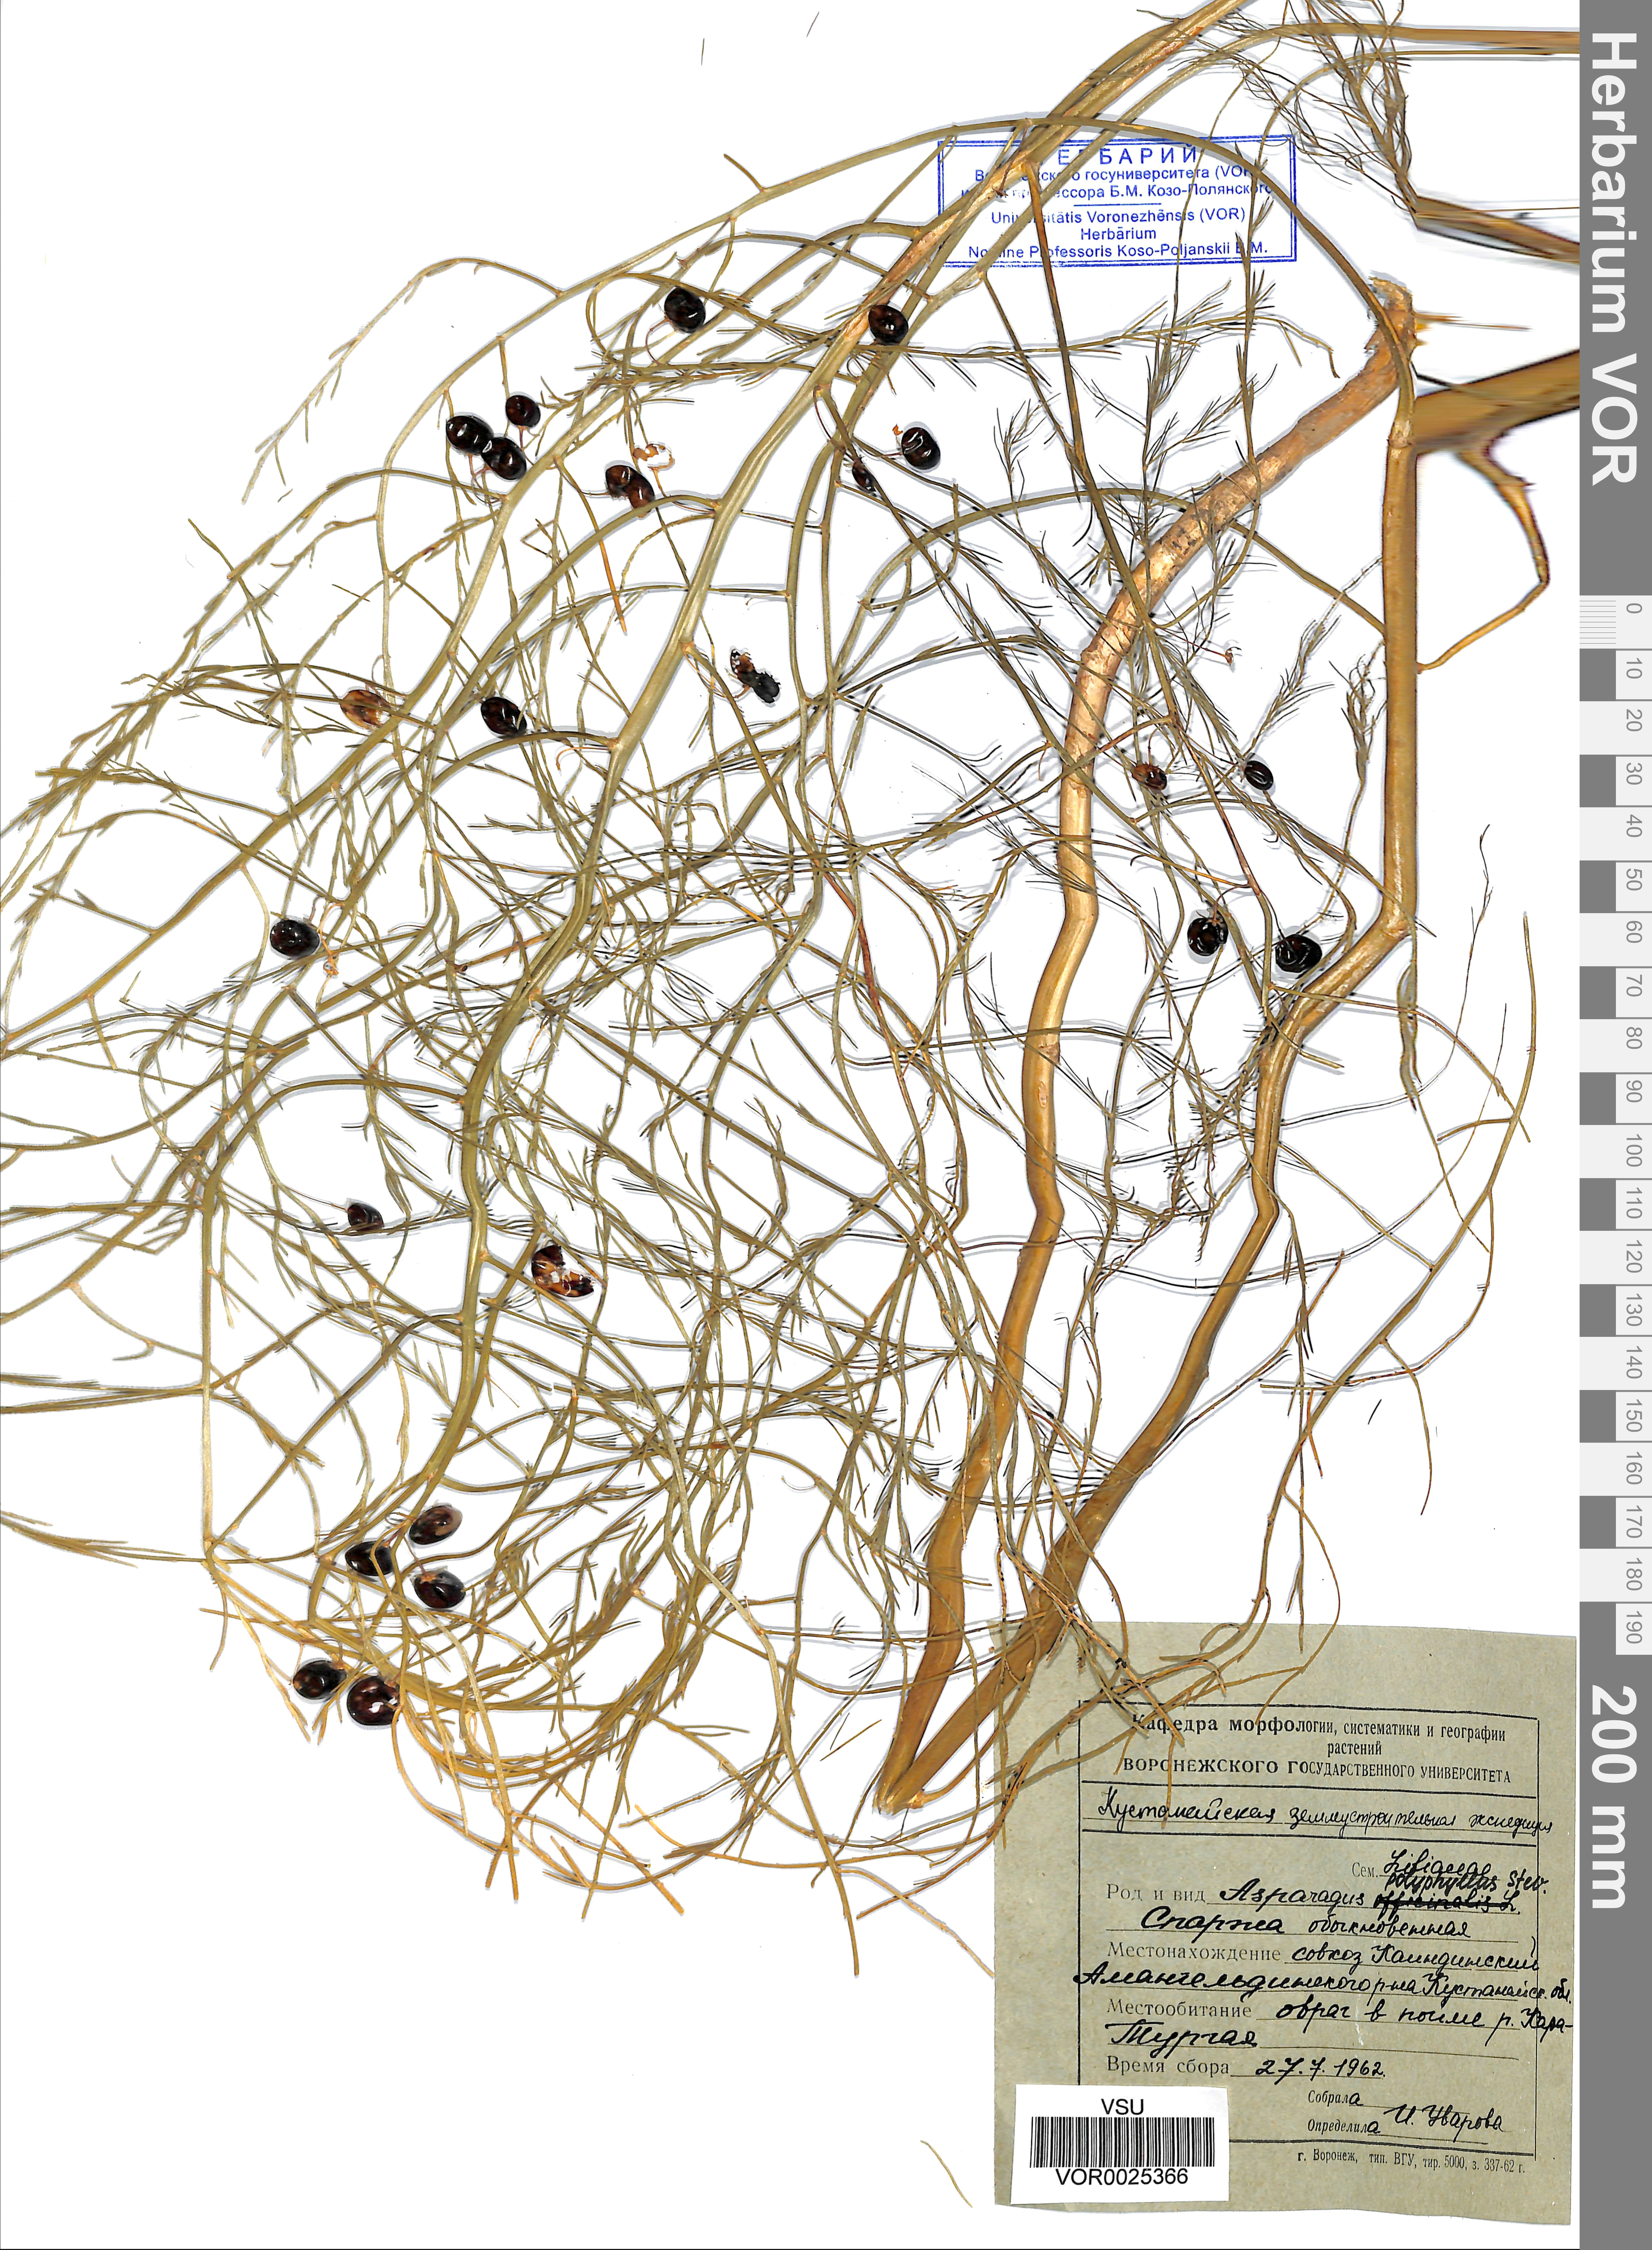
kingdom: Plantae
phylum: Tracheophyta
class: Liliopsida
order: Asparagales
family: Asparagaceae
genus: Asparagus
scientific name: Asparagus officinalis
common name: Garden asparagus
